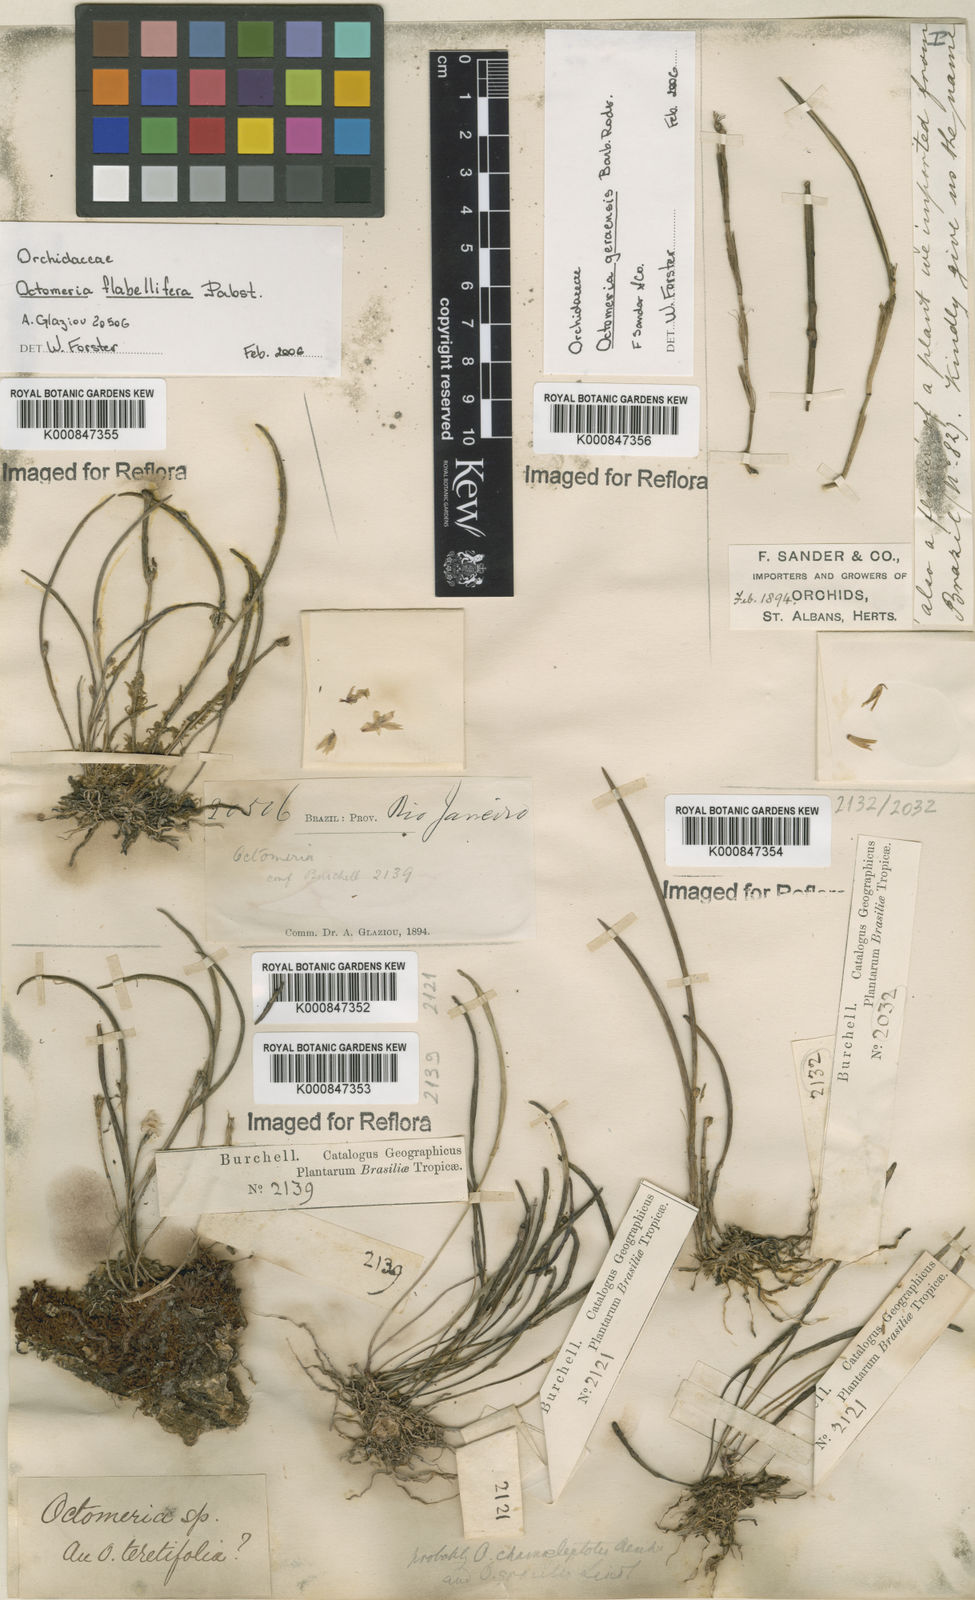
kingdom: Plantae
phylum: Tracheophyta
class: Liliopsida
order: Asparagales
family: Orchidaceae
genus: Octomeria
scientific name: Octomeria chamaeleptotes
